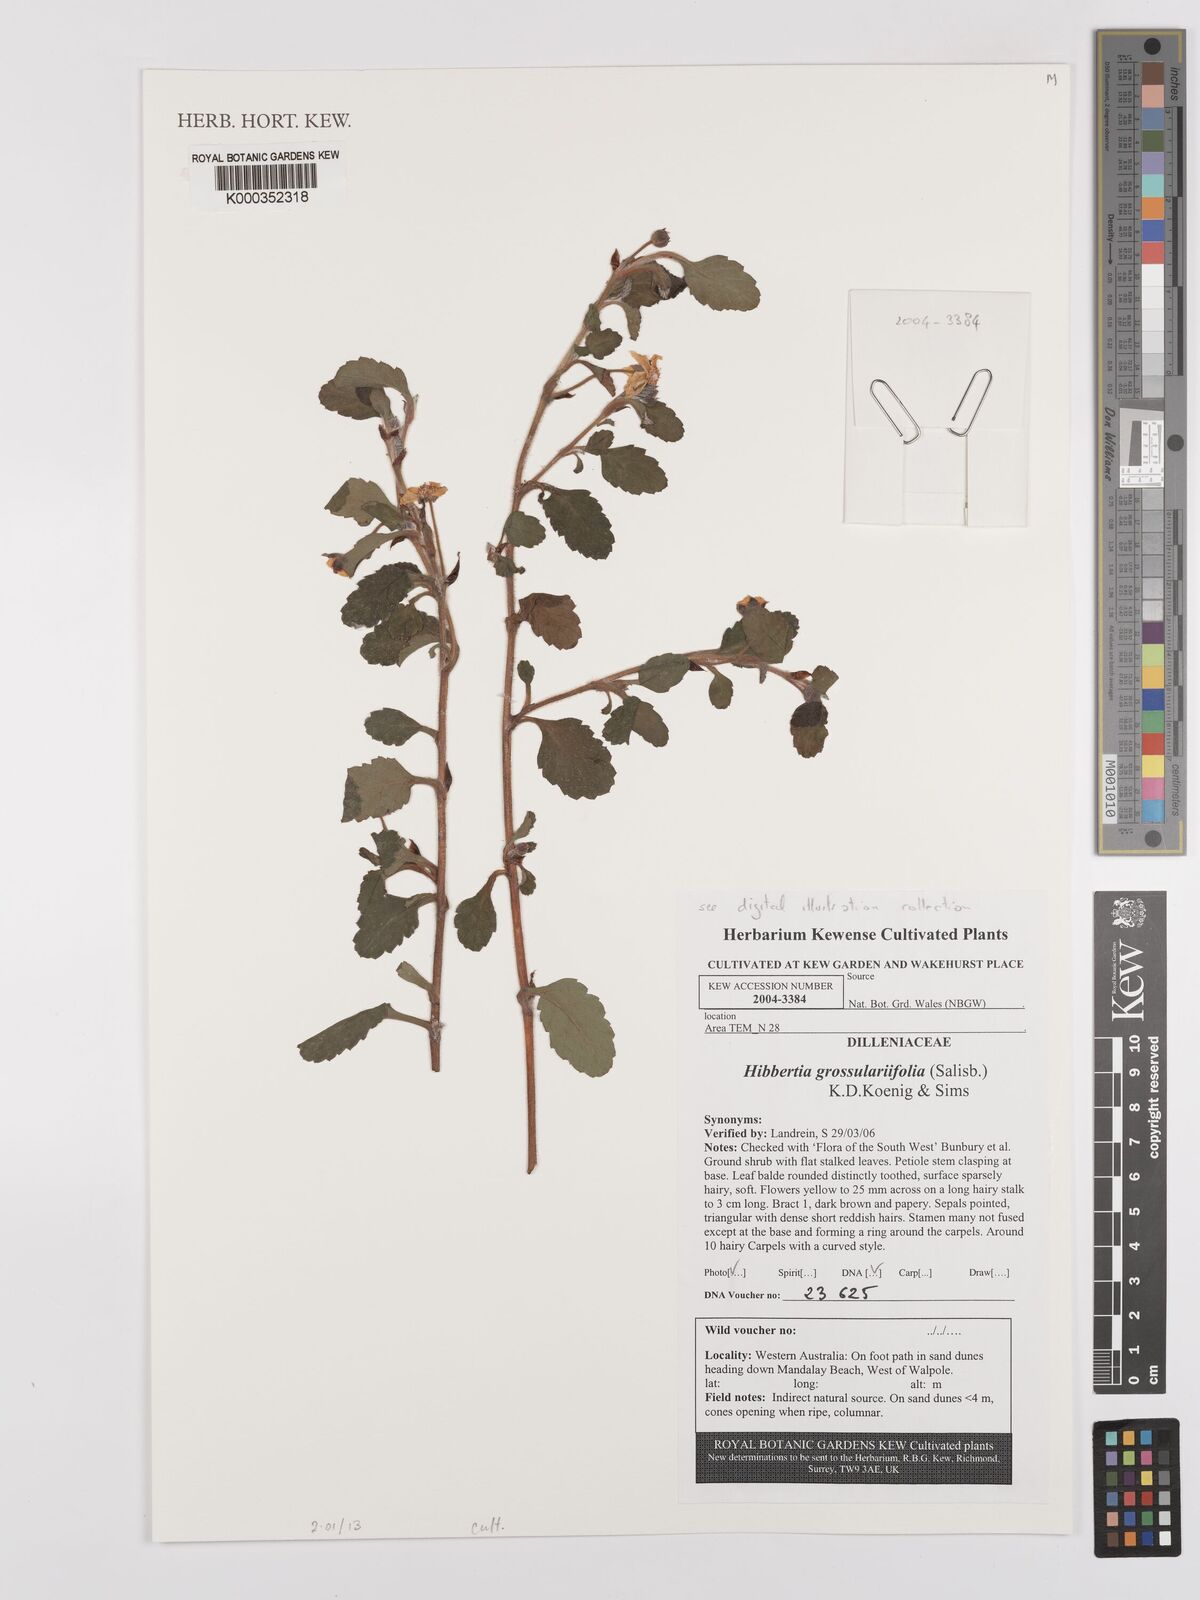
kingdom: Plantae
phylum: Tracheophyta
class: Magnoliopsida
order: Dilleniales
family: Dilleniaceae
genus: Hibbertia
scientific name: Hibbertia
